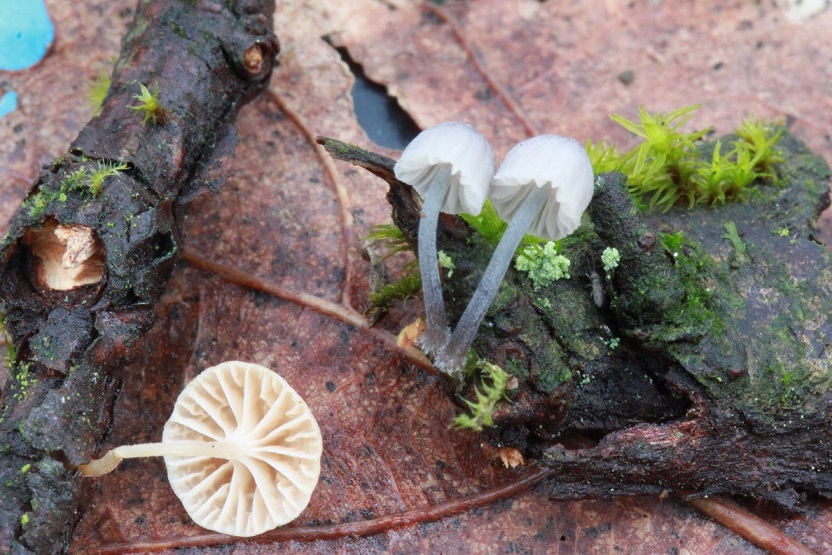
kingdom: Fungi
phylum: Basidiomycota
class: Agaricomycetes
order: Agaricales
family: Porotheleaceae
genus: Phloeomana
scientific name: Phloeomana clavata
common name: brunbladet huesvamp
